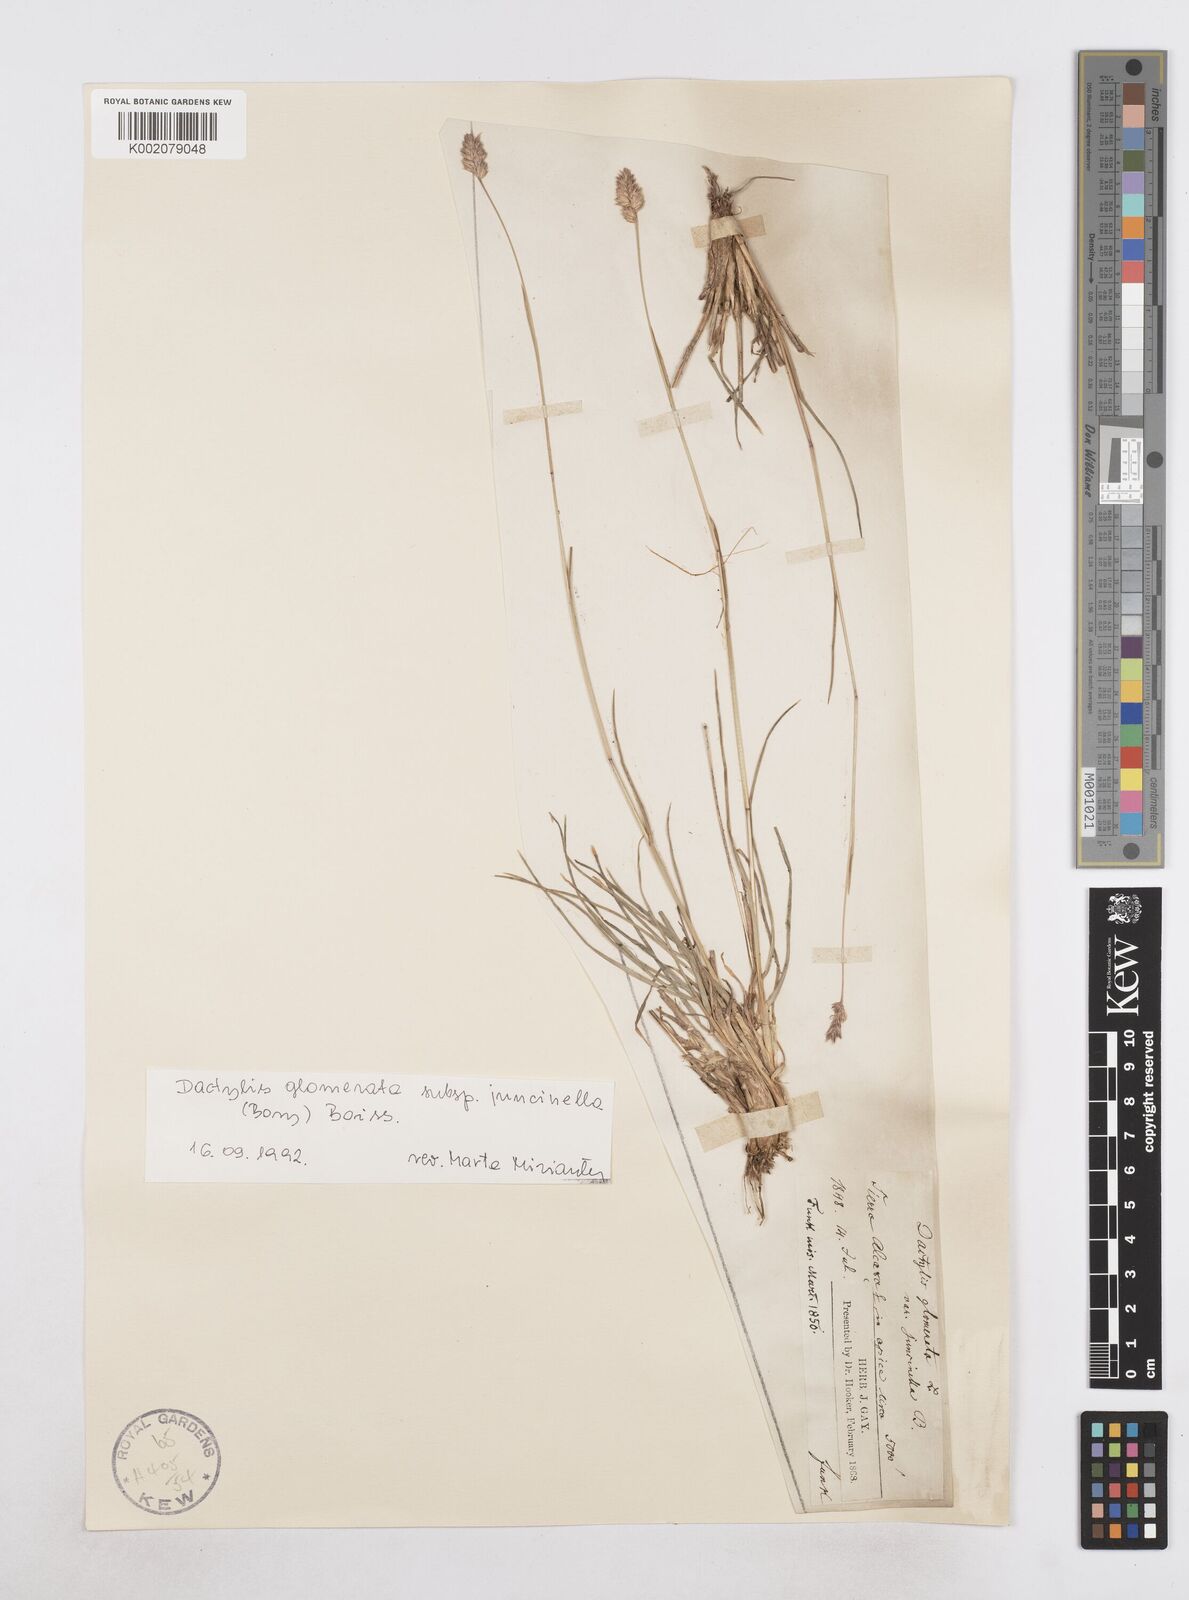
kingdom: Plantae
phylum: Tracheophyta
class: Liliopsida
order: Poales
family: Poaceae
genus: Dactylis
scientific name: Dactylis glomerata
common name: Orchardgrass
